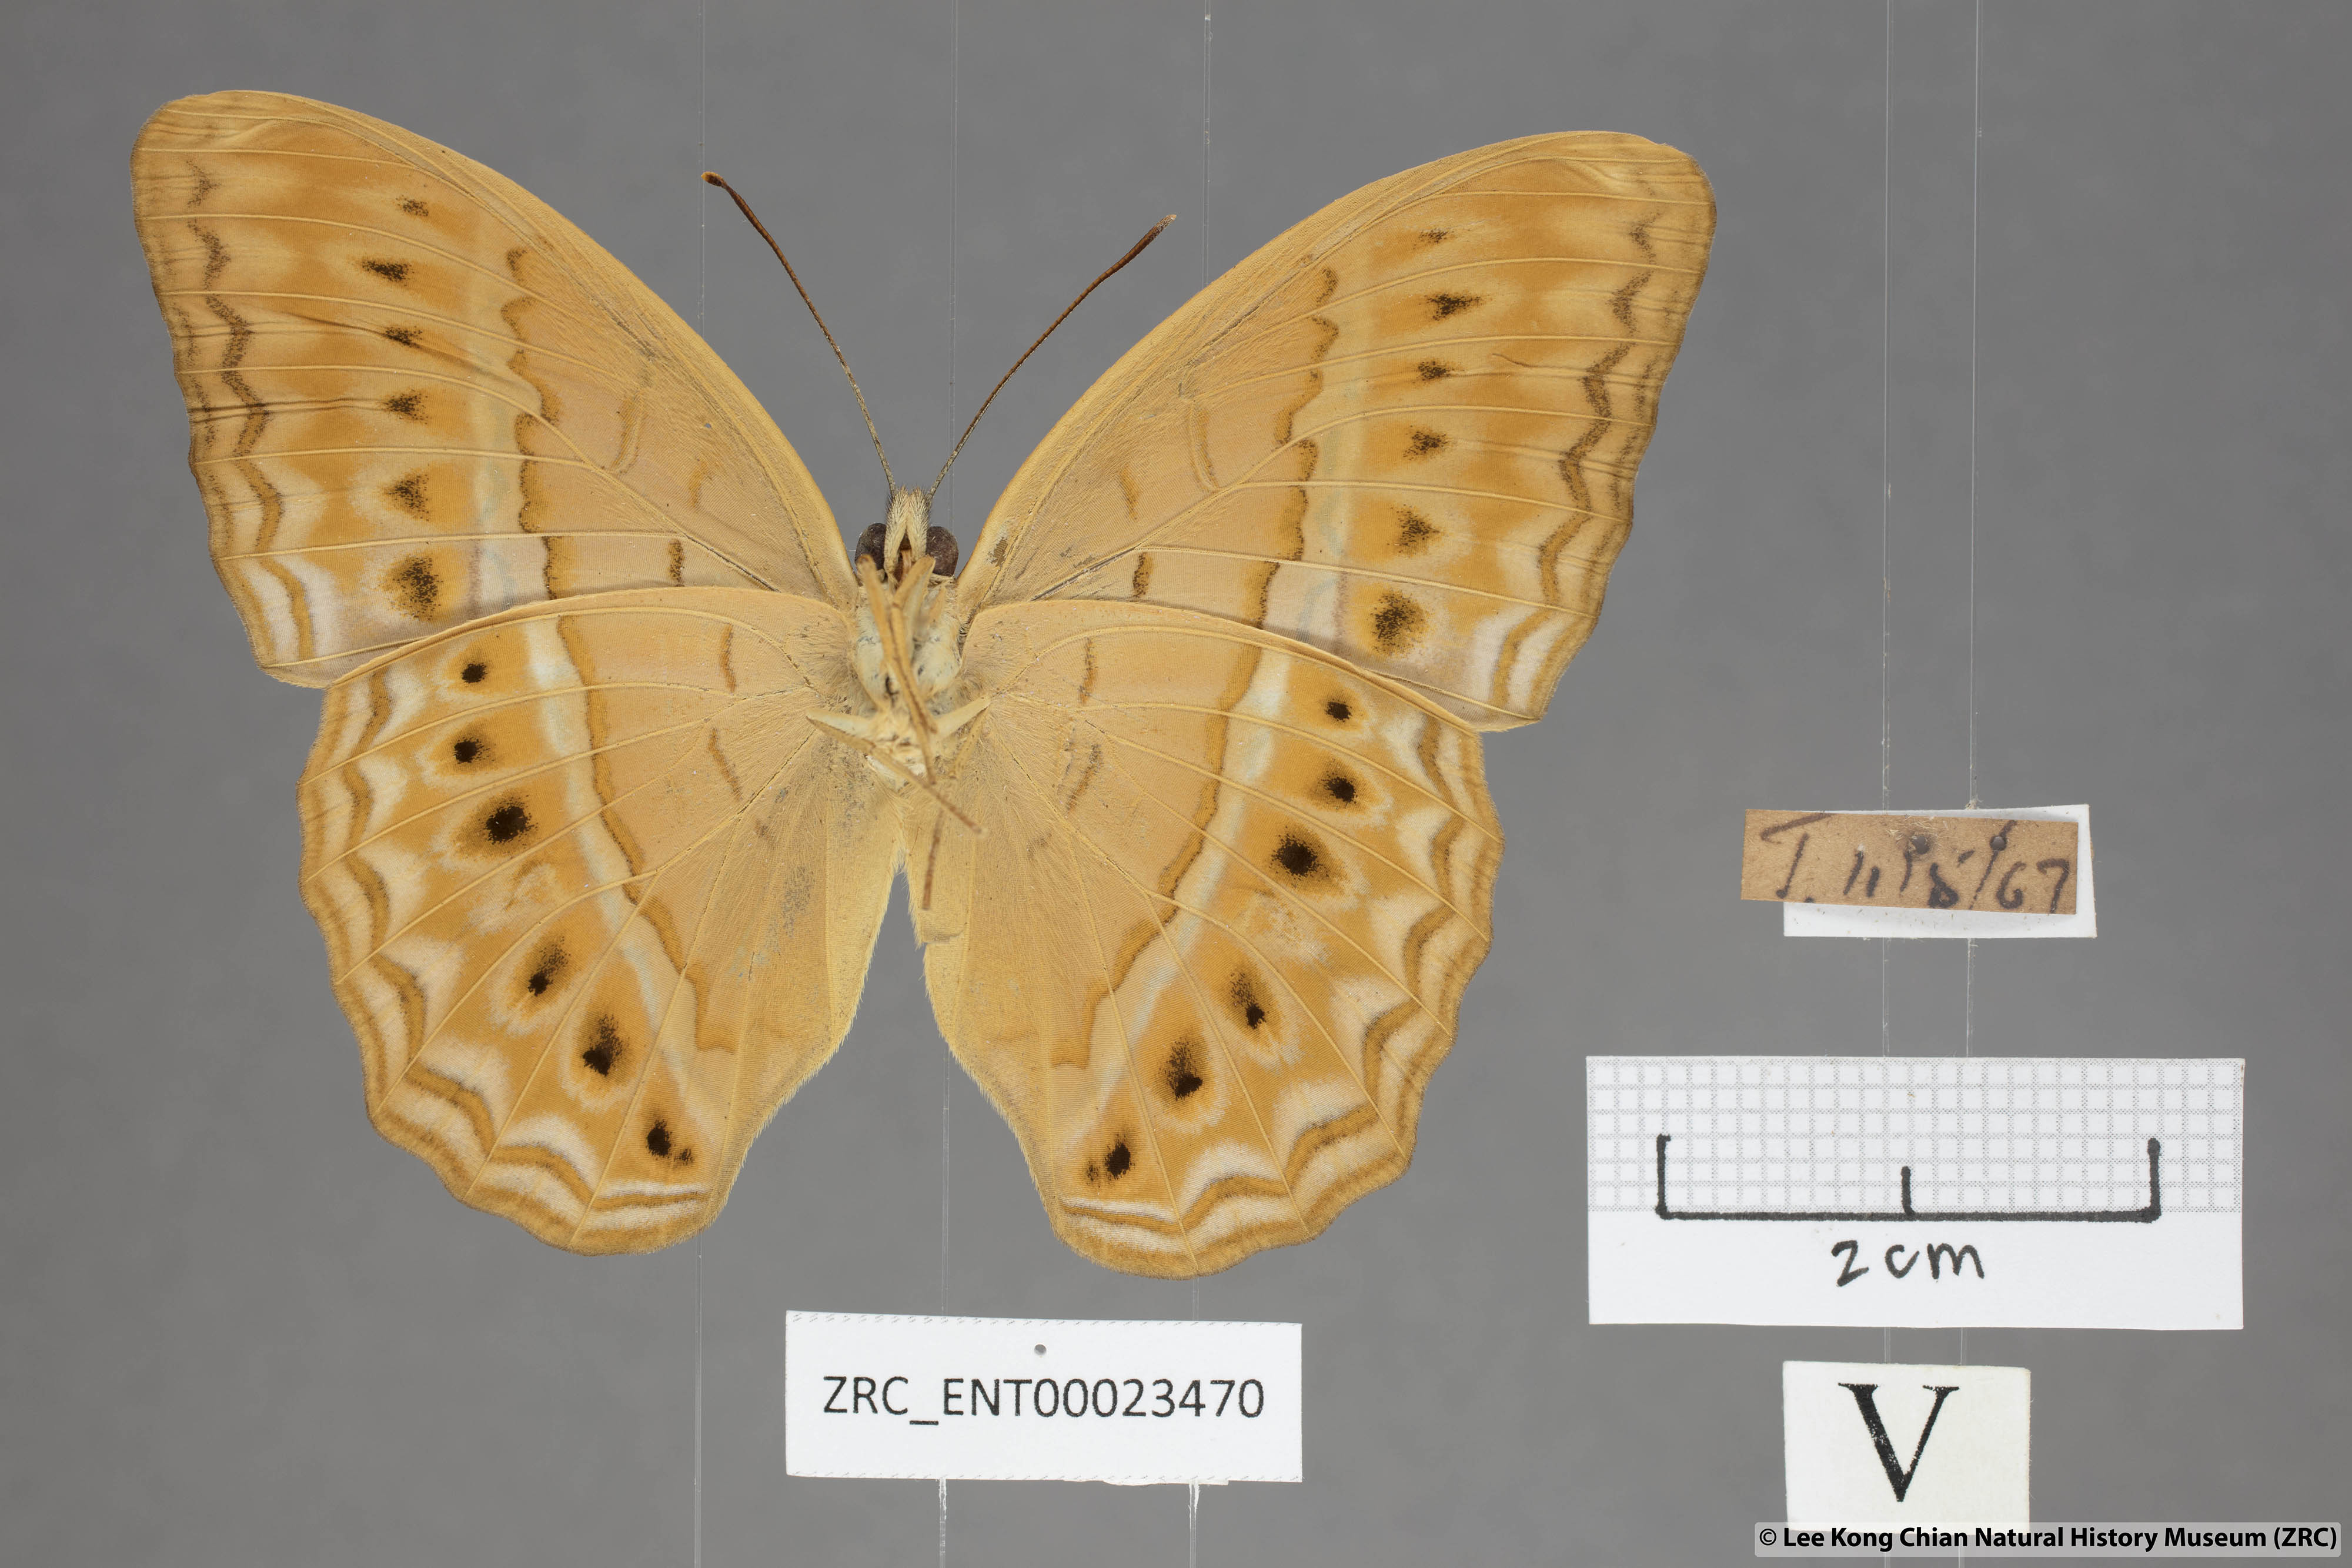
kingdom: Animalia
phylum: Arthropoda
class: Insecta
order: Lepidoptera
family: Nymphalidae
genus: Cirrochroa
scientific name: Cirrochroa tyche
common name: Common yeoman
